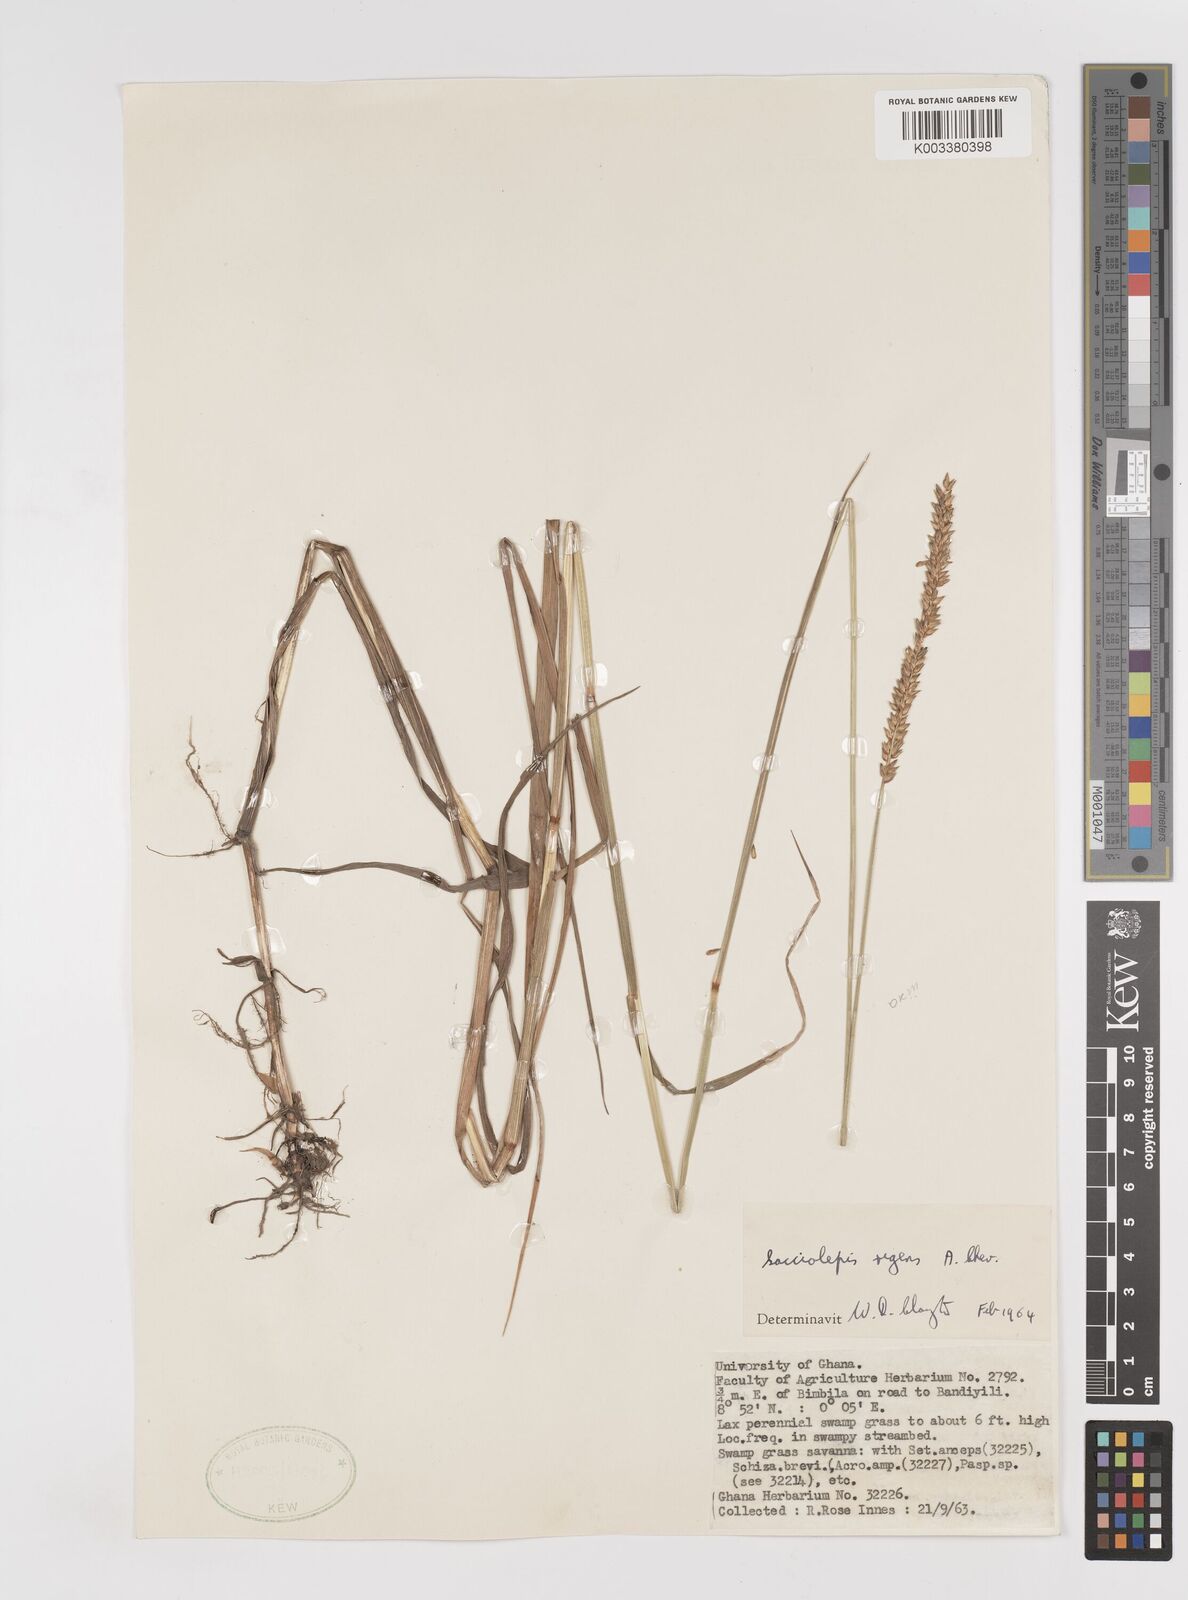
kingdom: Plantae
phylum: Tracheophyta
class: Liliopsida
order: Poales
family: Poaceae
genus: Sacciolepis
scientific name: Sacciolepis leptorrhachis
